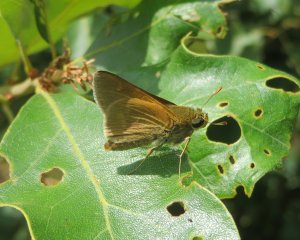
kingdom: Animalia
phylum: Arthropoda
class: Insecta
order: Lepidoptera
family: Hesperiidae
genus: Polites
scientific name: Polites
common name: Crossline Skipper
